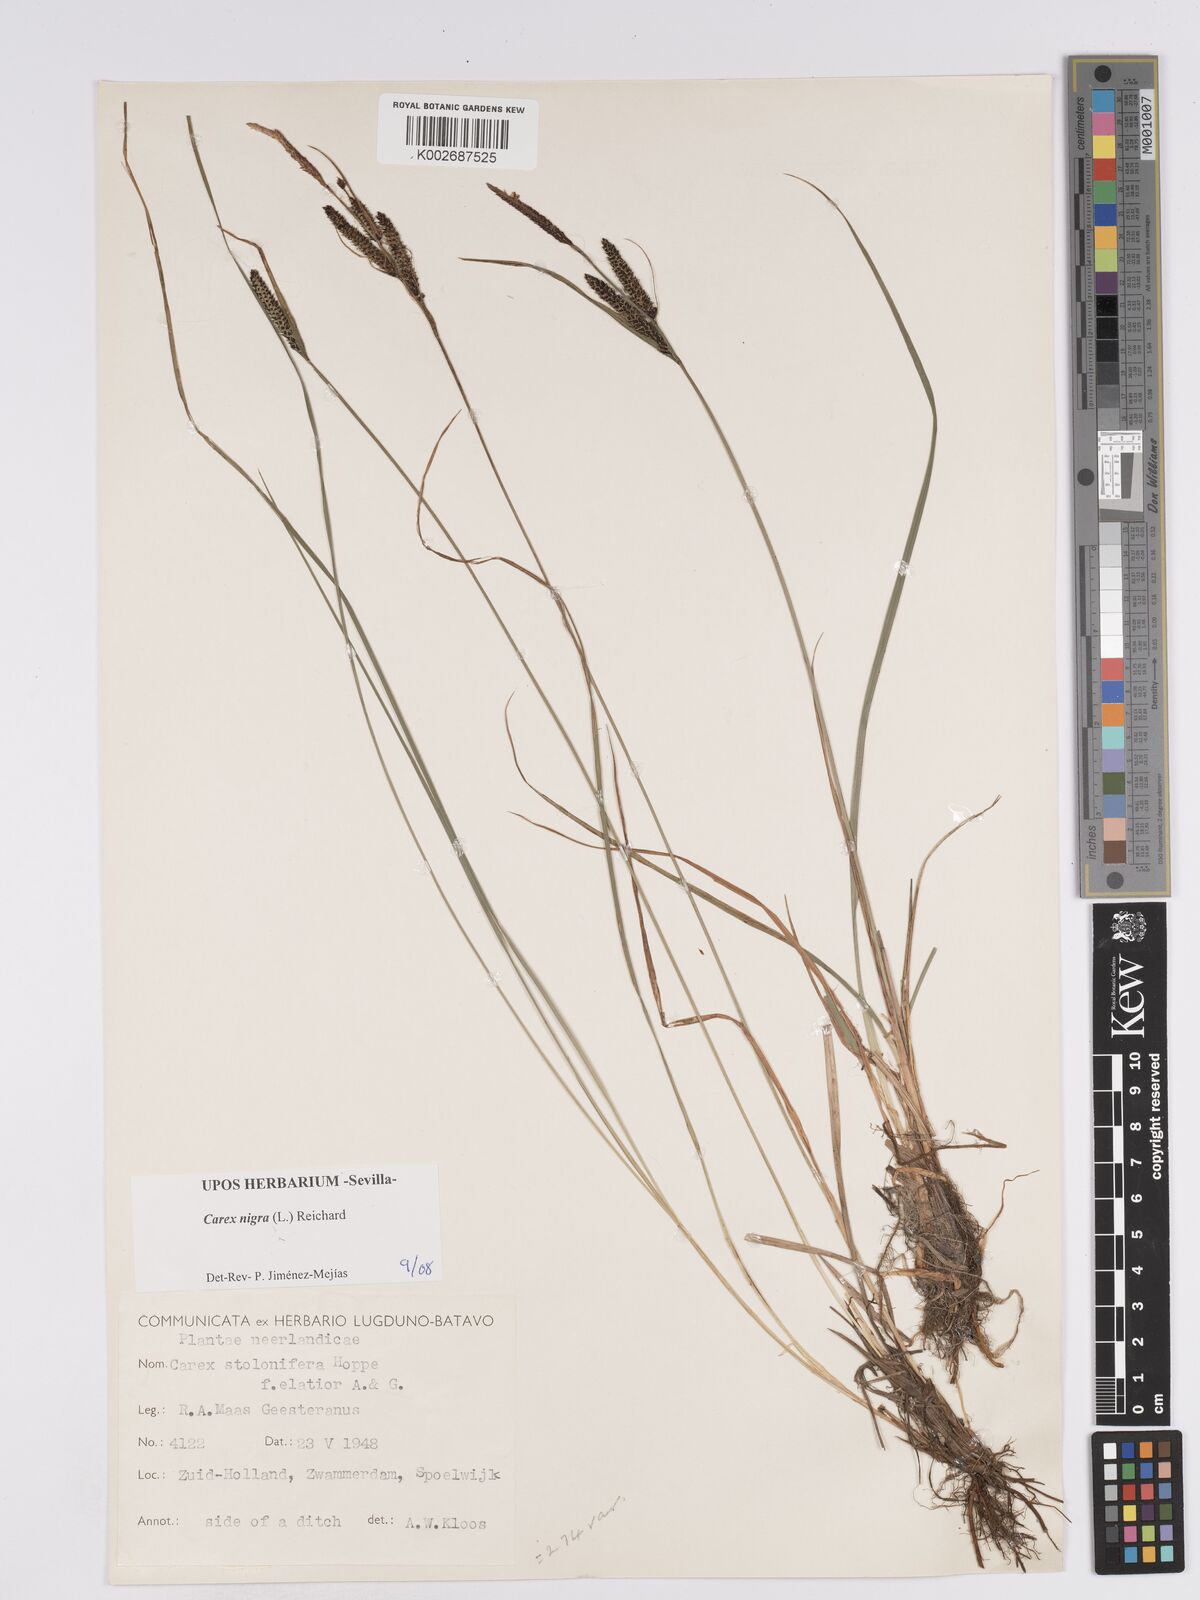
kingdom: Plantae
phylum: Tracheophyta
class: Liliopsida
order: Poales
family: Cyperaceae
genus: Carex
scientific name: Carex nigra
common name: Common sedge
